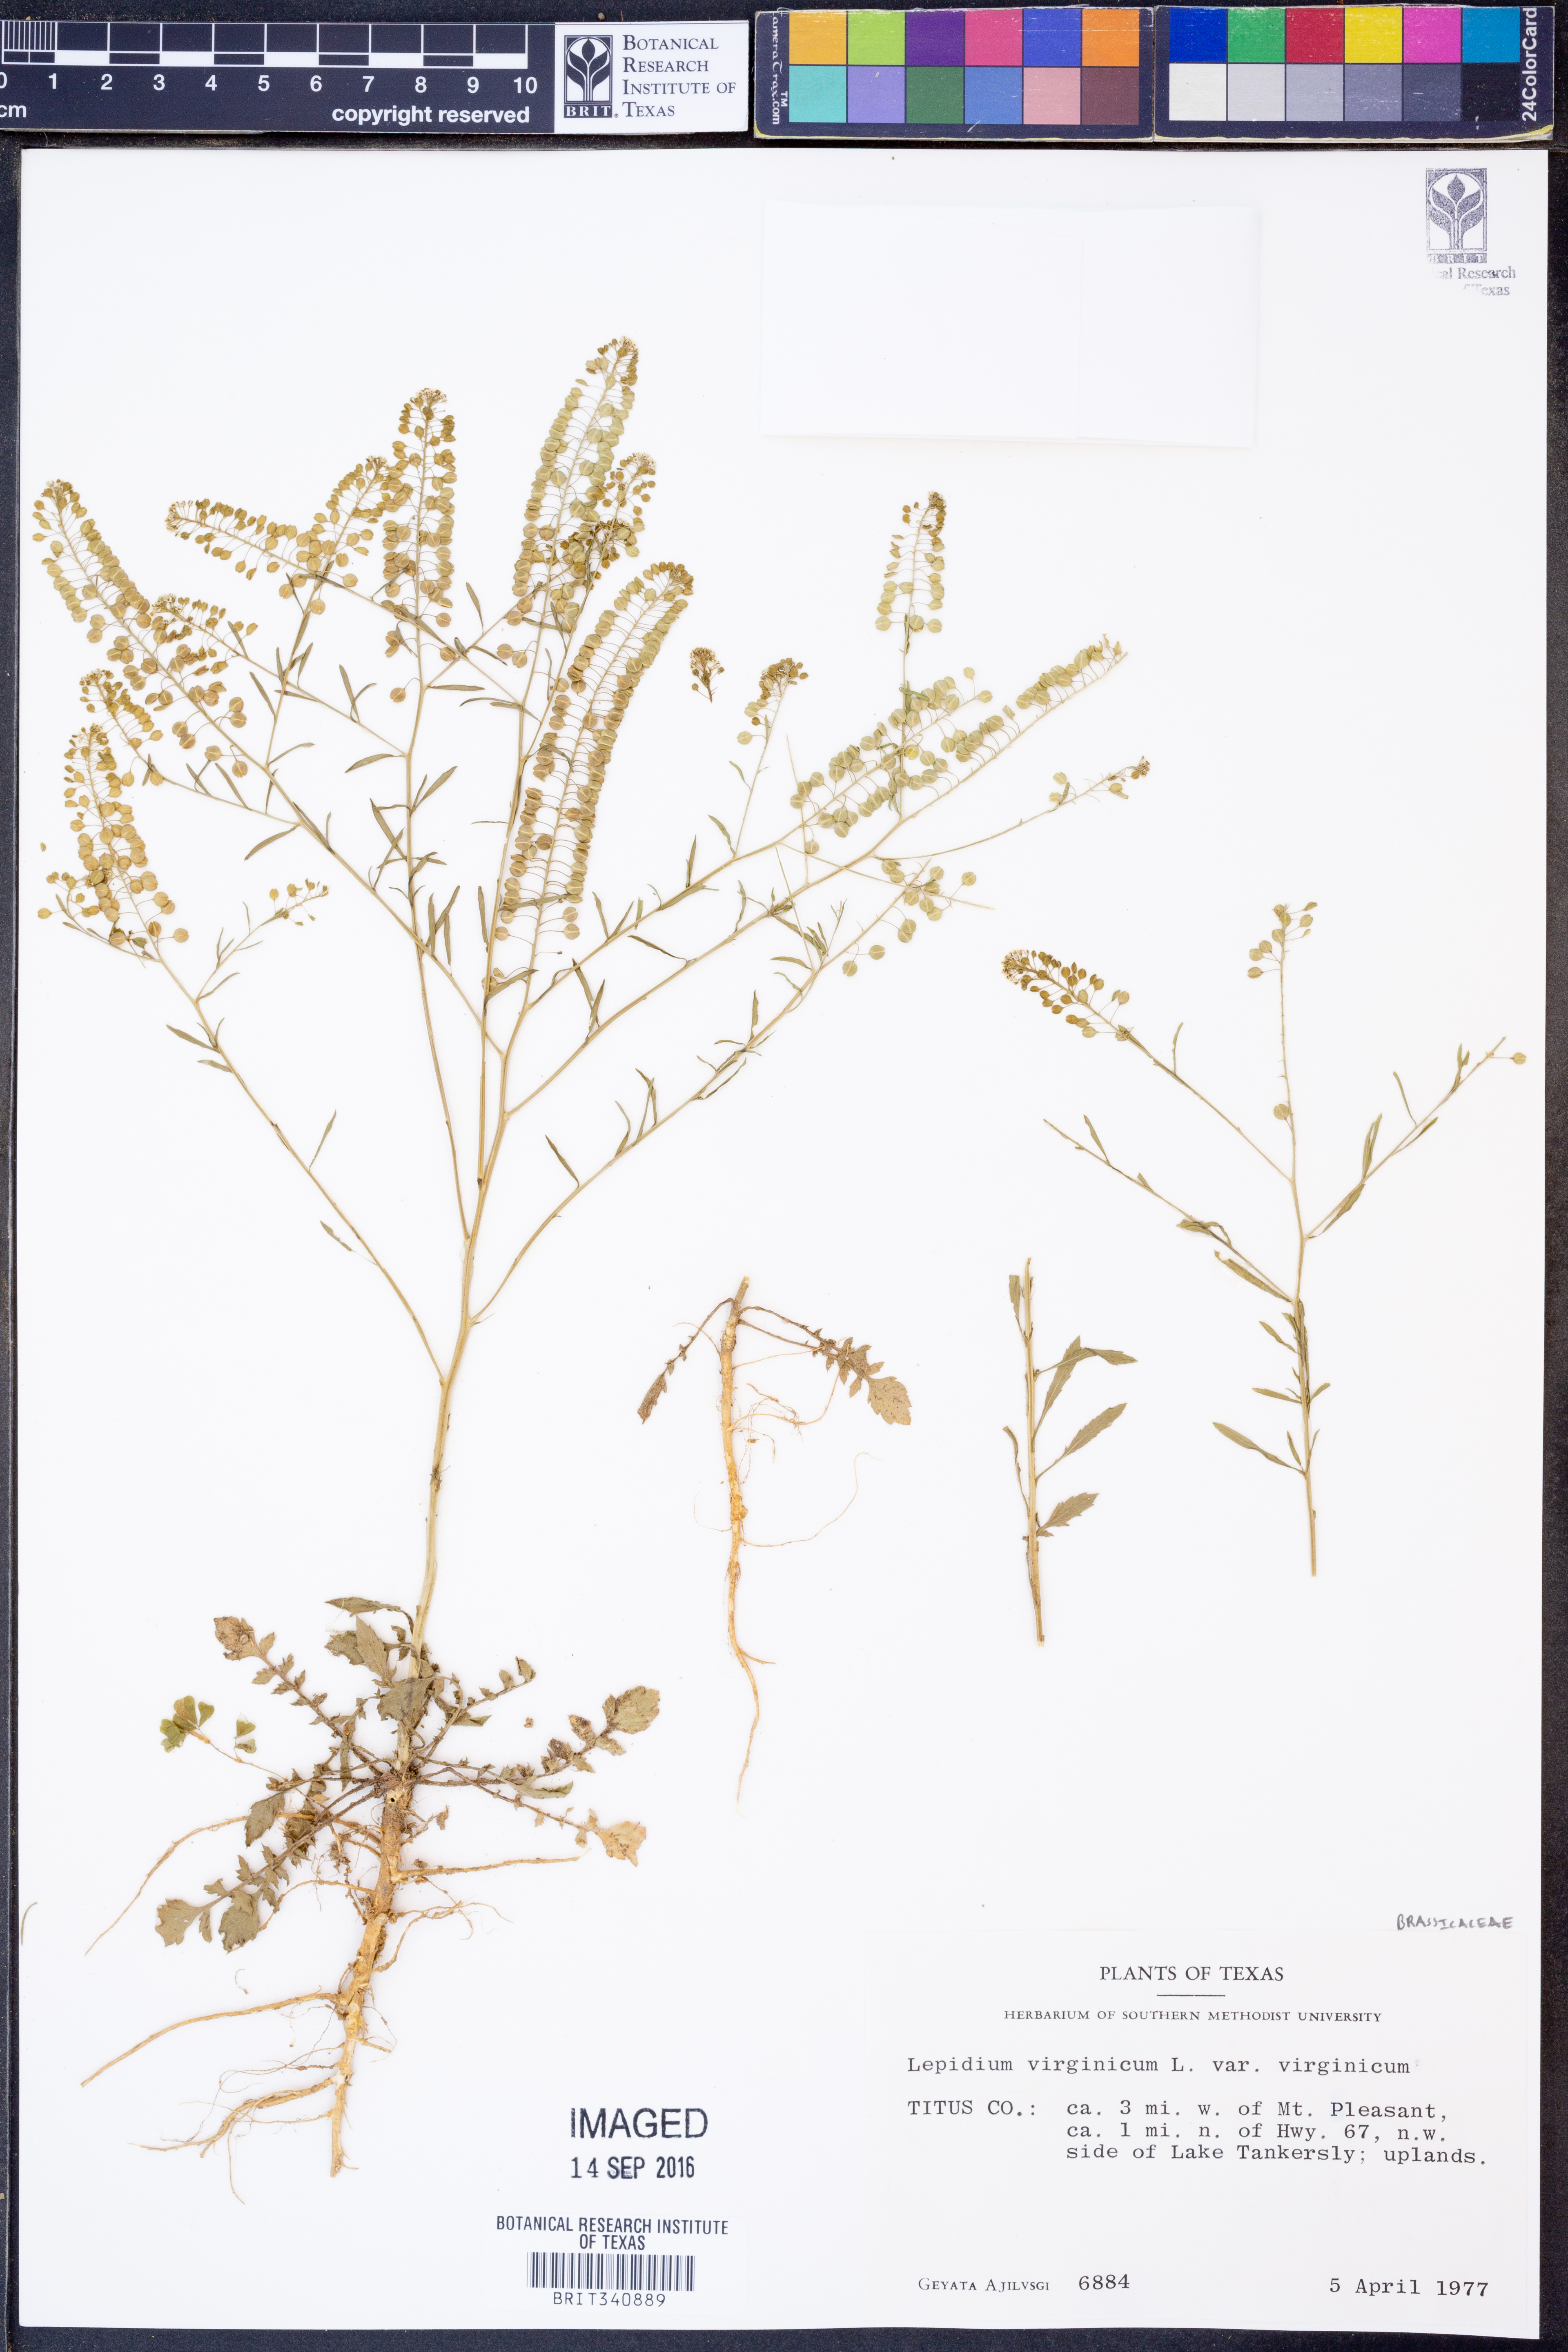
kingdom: Plantae
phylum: Tracheophyta
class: Magnoliopsida
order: Brassicales
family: Brassicaceae
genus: Lepidium
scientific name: Lepidium virginicum
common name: Least pepperwort
